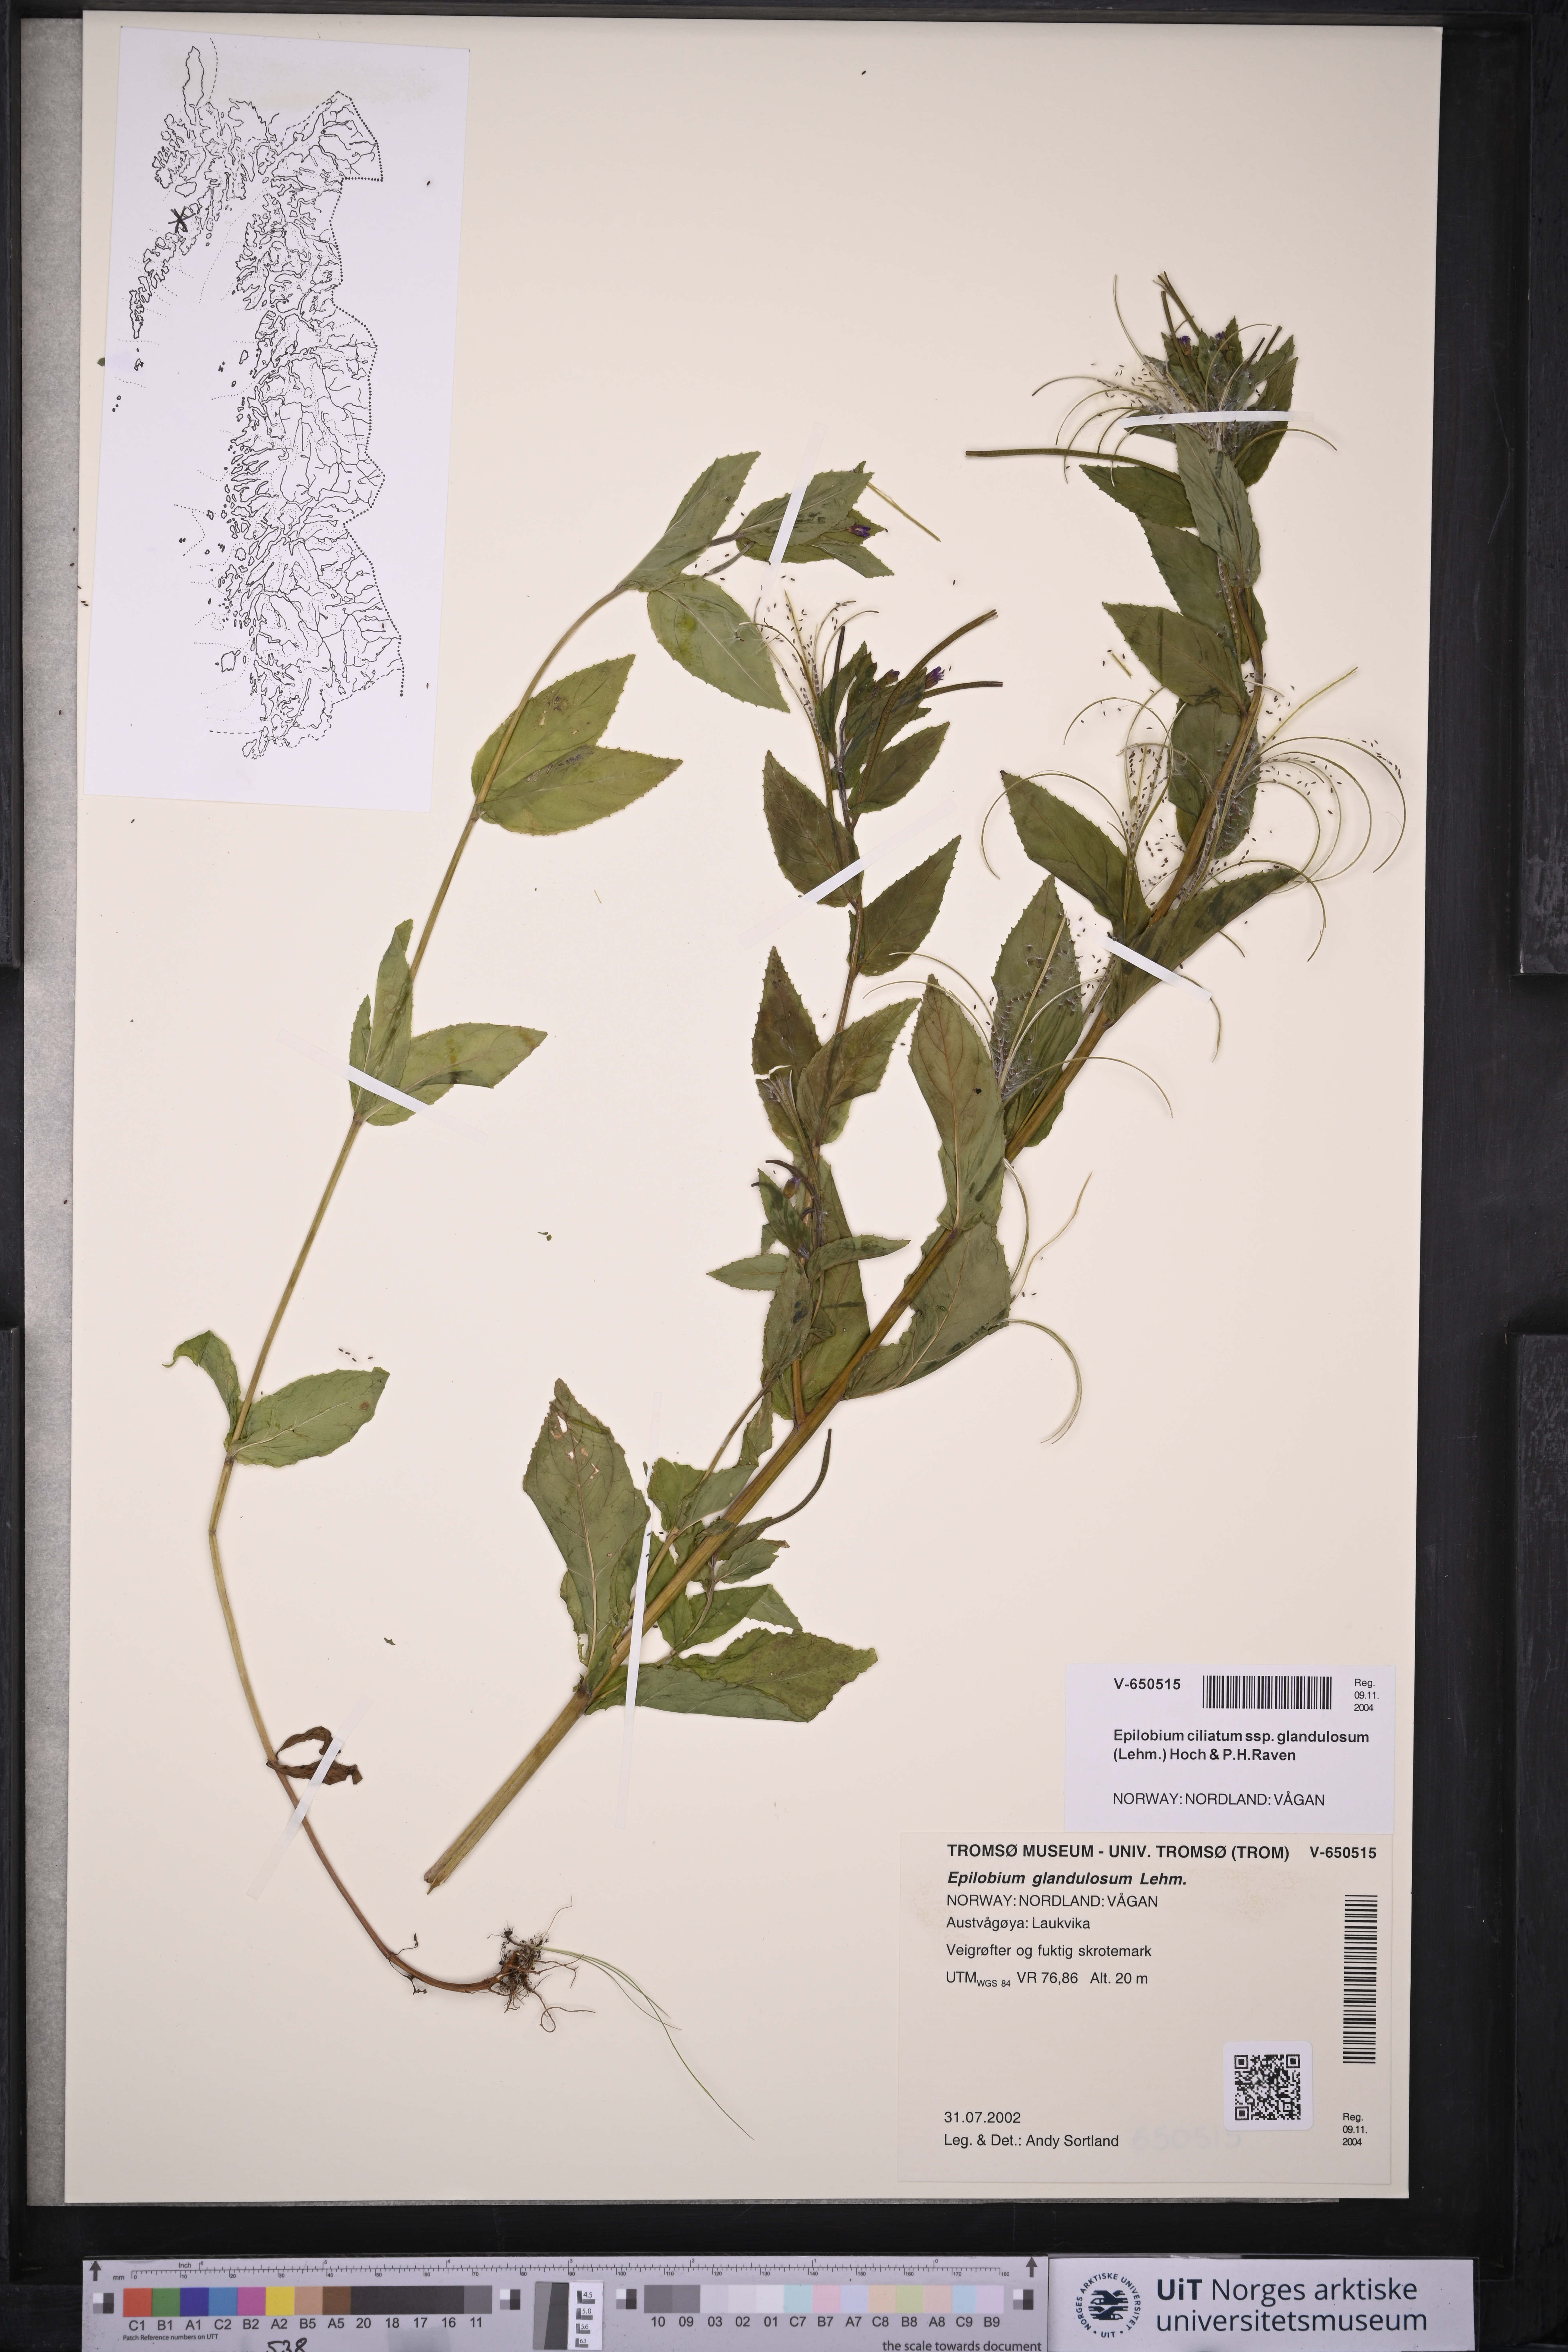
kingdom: Plantae
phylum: Tracheophyta
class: Magnoliopsida
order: Myrtales
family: Onagraceae
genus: Epilobium
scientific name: Epilobium ciliatum
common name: American willowherb
